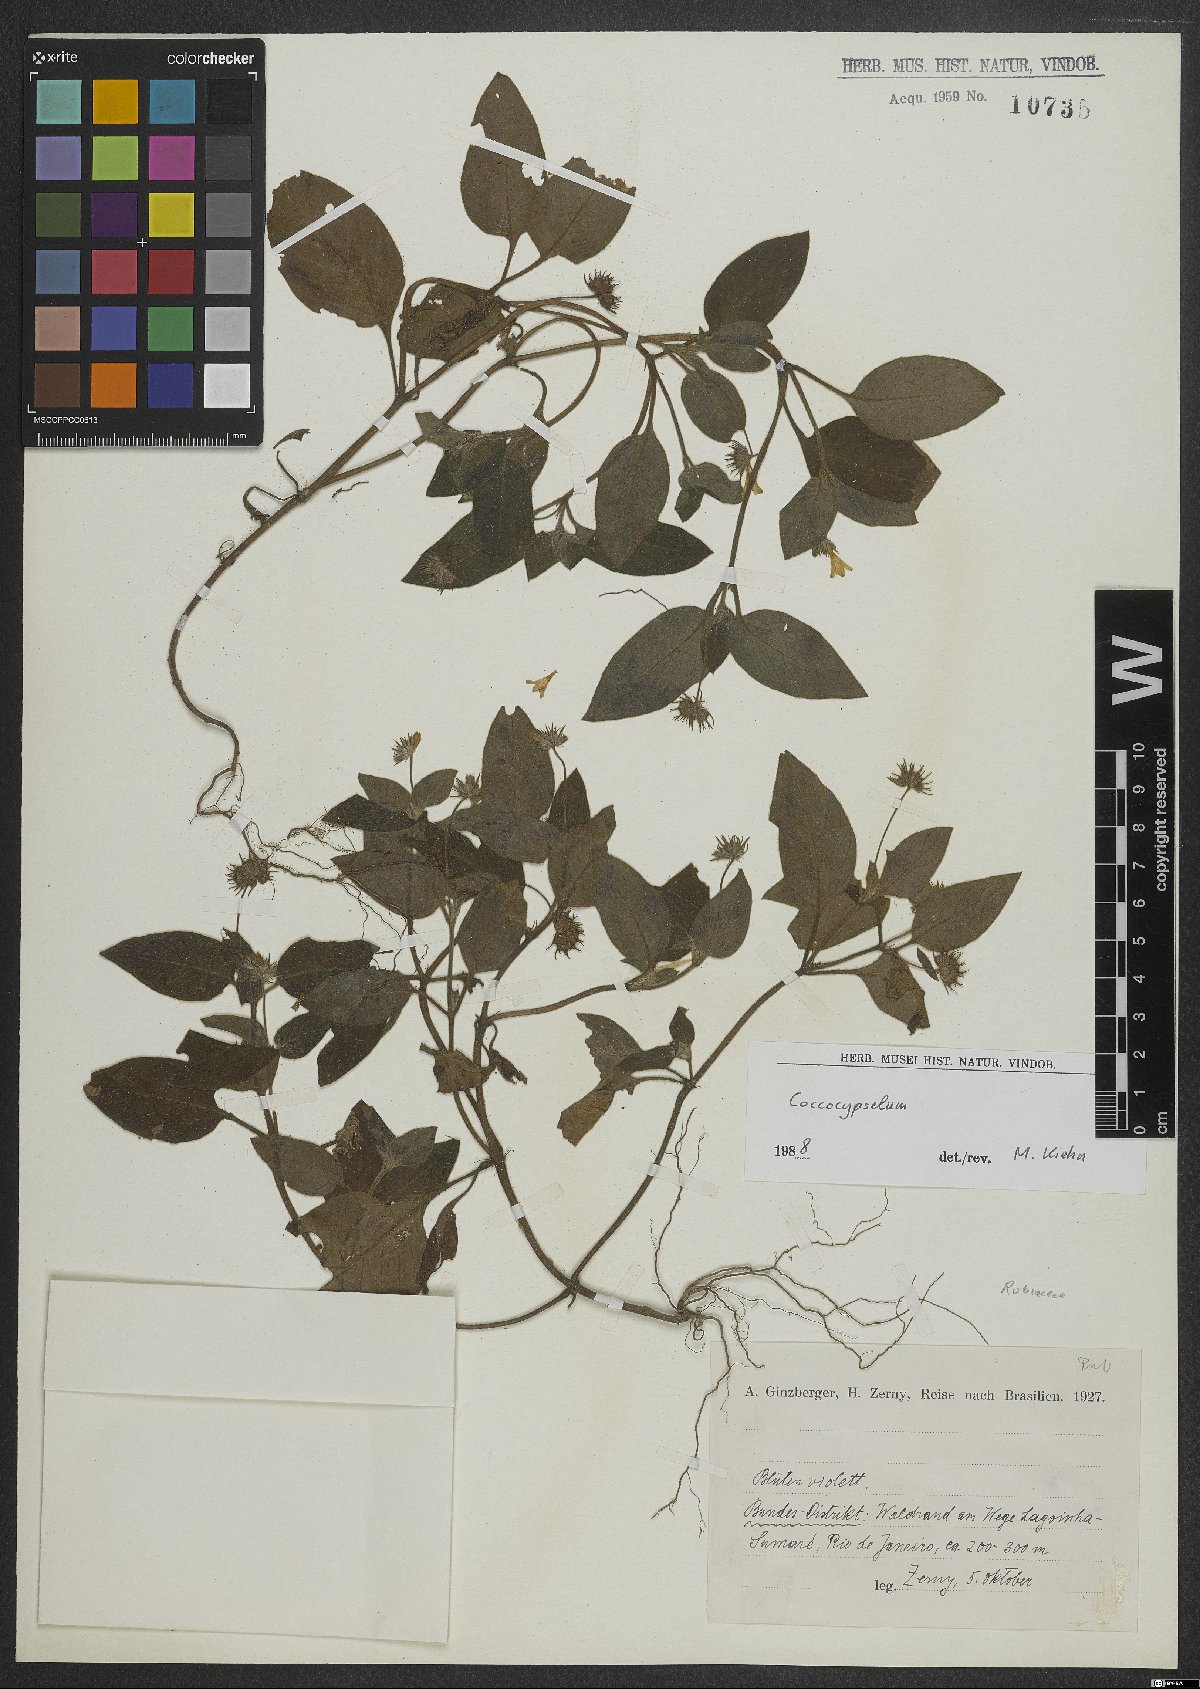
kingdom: Plantae
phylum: Tracheophyta
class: Magnoliopsida
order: Gentianales
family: Rubiaceae
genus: Coccocypselum
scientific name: Coccocypselum
